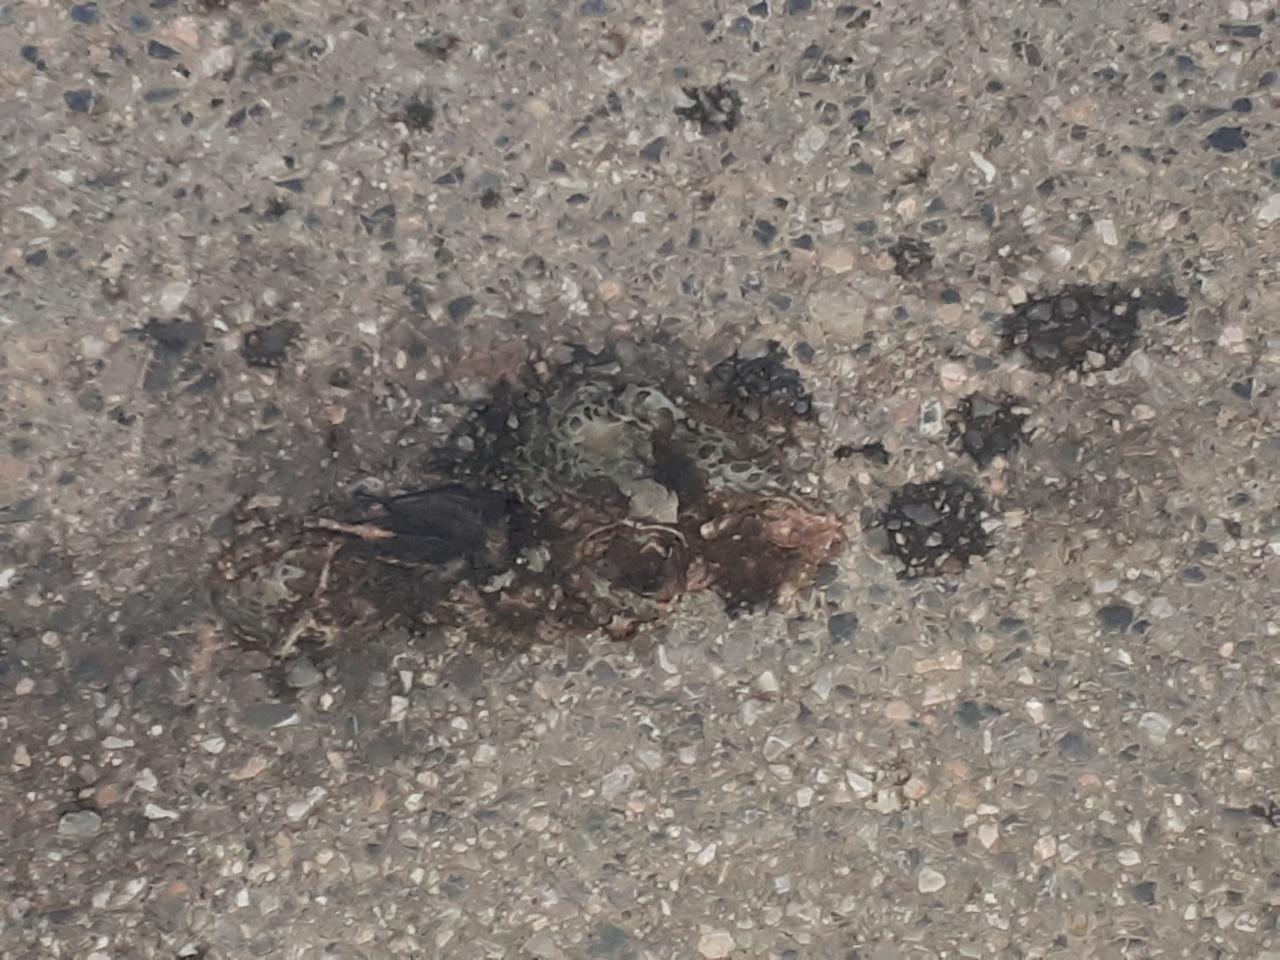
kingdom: Animalia
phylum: Chordata
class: Amphibia
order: Anura
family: Bufonidae
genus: Bufotes
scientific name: Bufotes viridis
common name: European green toad
